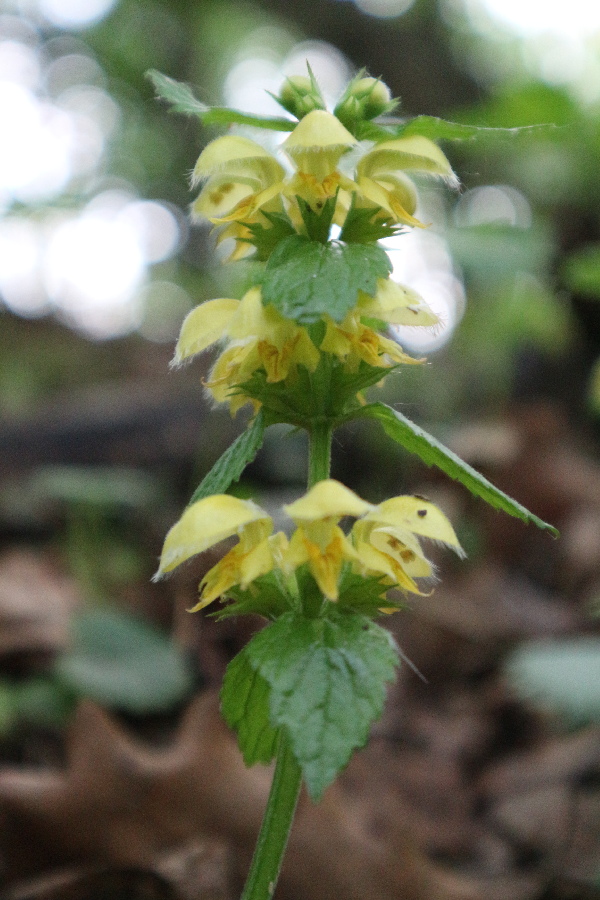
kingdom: Plantae
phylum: Tracheophyta
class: Magnoliopsida
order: Lamiales
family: Lamiaceae
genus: Lamium
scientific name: Lamium galeobdolon
